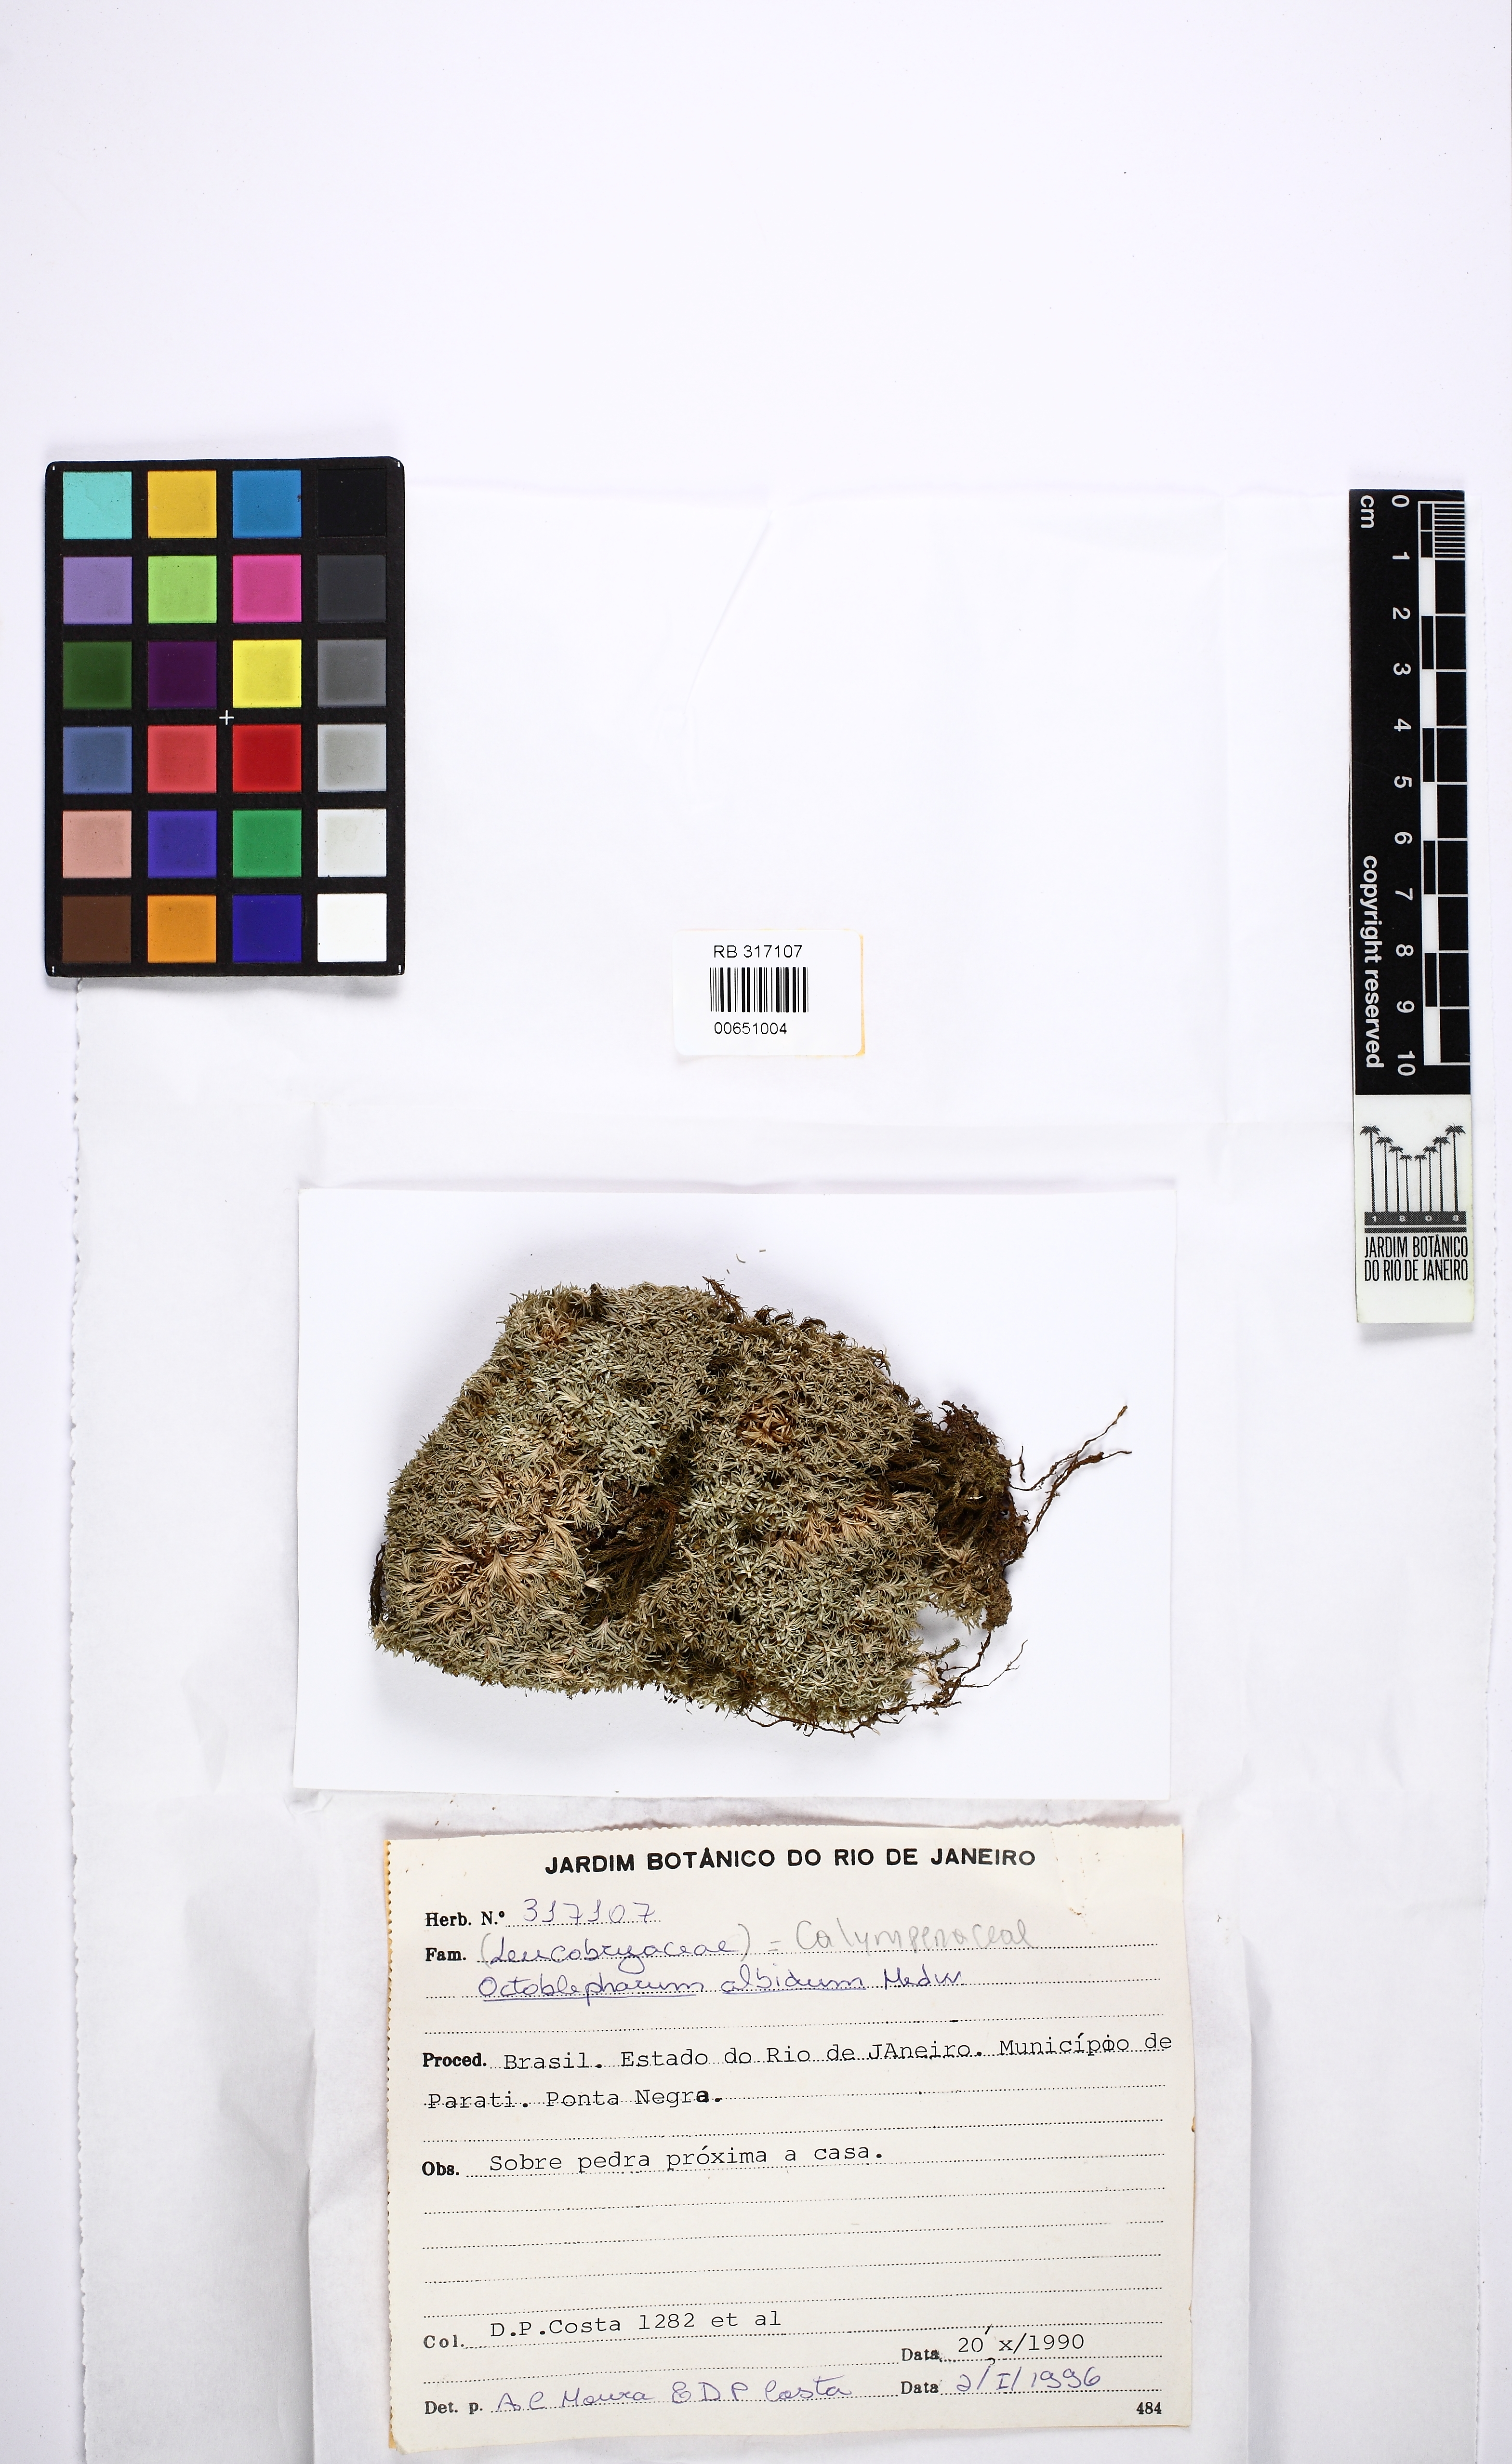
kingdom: Plantae
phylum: Bryophyta
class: Bryopsida
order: Dicranales
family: Octoblepharaceae
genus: Octoblepharum
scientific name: Octoblepharum albidum
